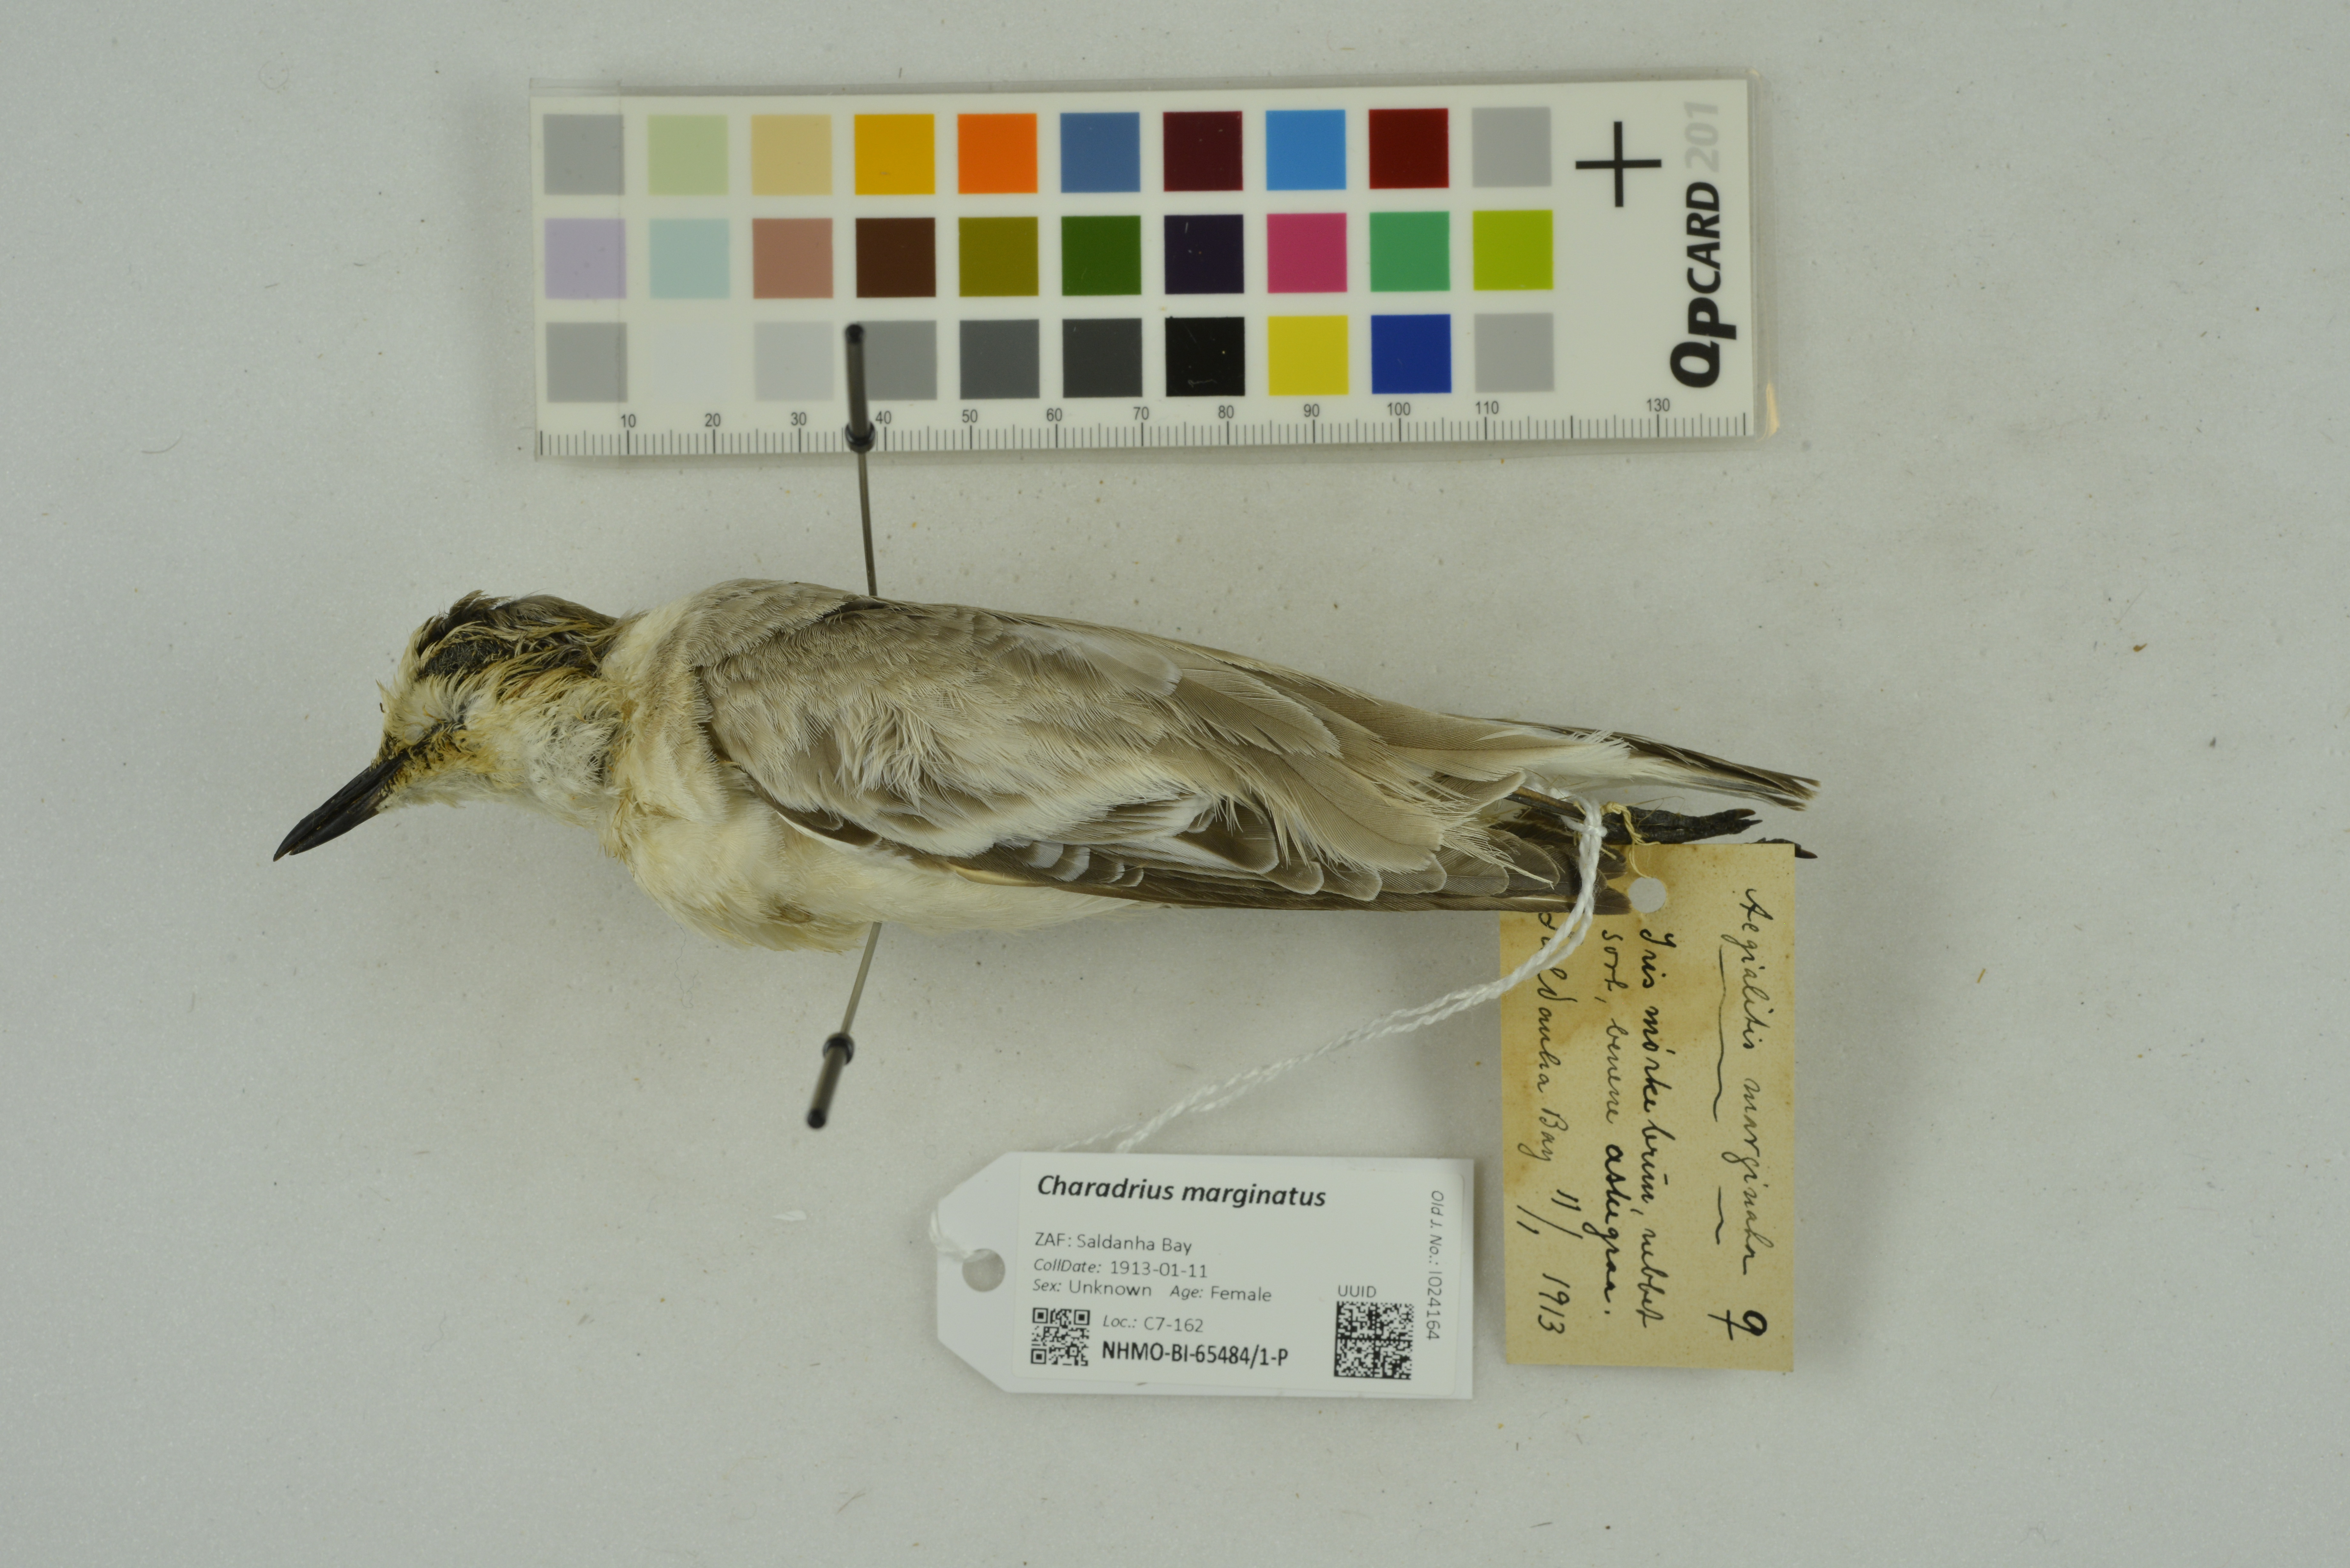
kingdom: Animalia
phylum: Chordata
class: Aves
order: Charadriiformes
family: Charadriidae
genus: Charadrius
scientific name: Charadrius marginatus
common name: White-fronted plover
